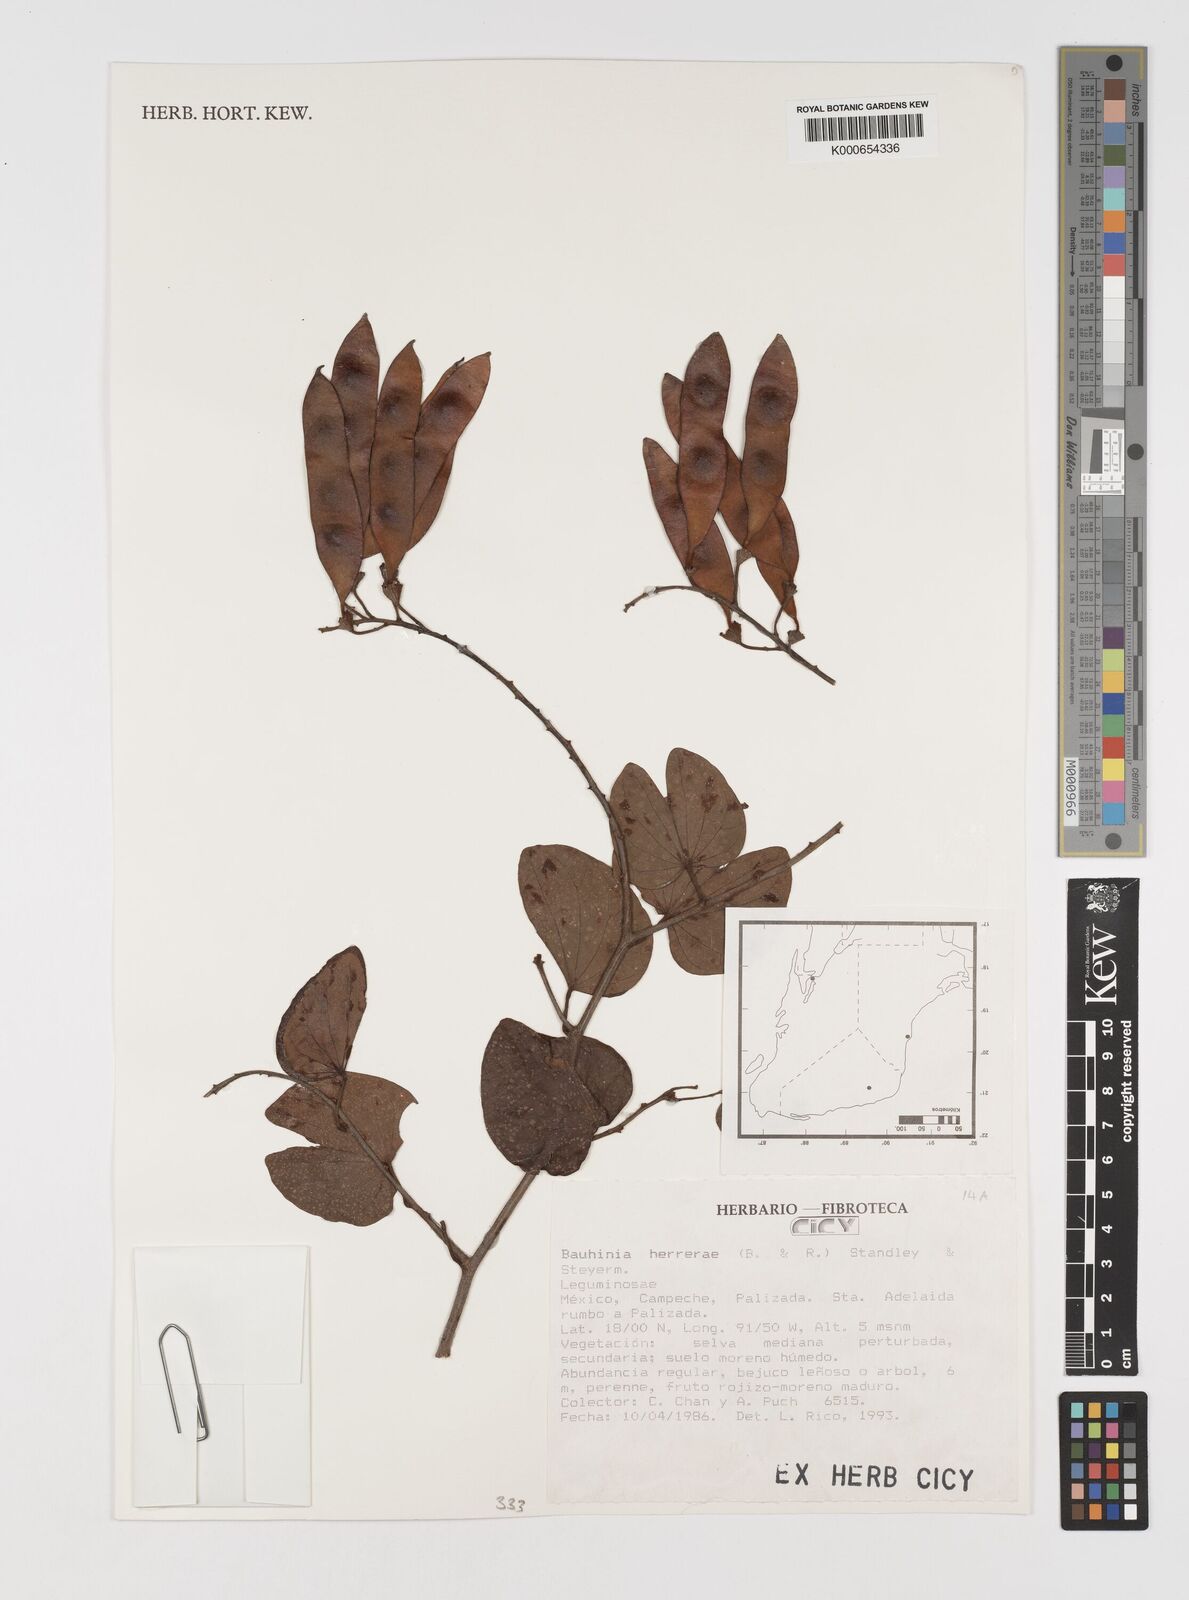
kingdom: Plantae
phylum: Tracheophyta
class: Magnoliopsida
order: Fabales
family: Fabaceae
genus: Schnella
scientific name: Schnella herrerae
